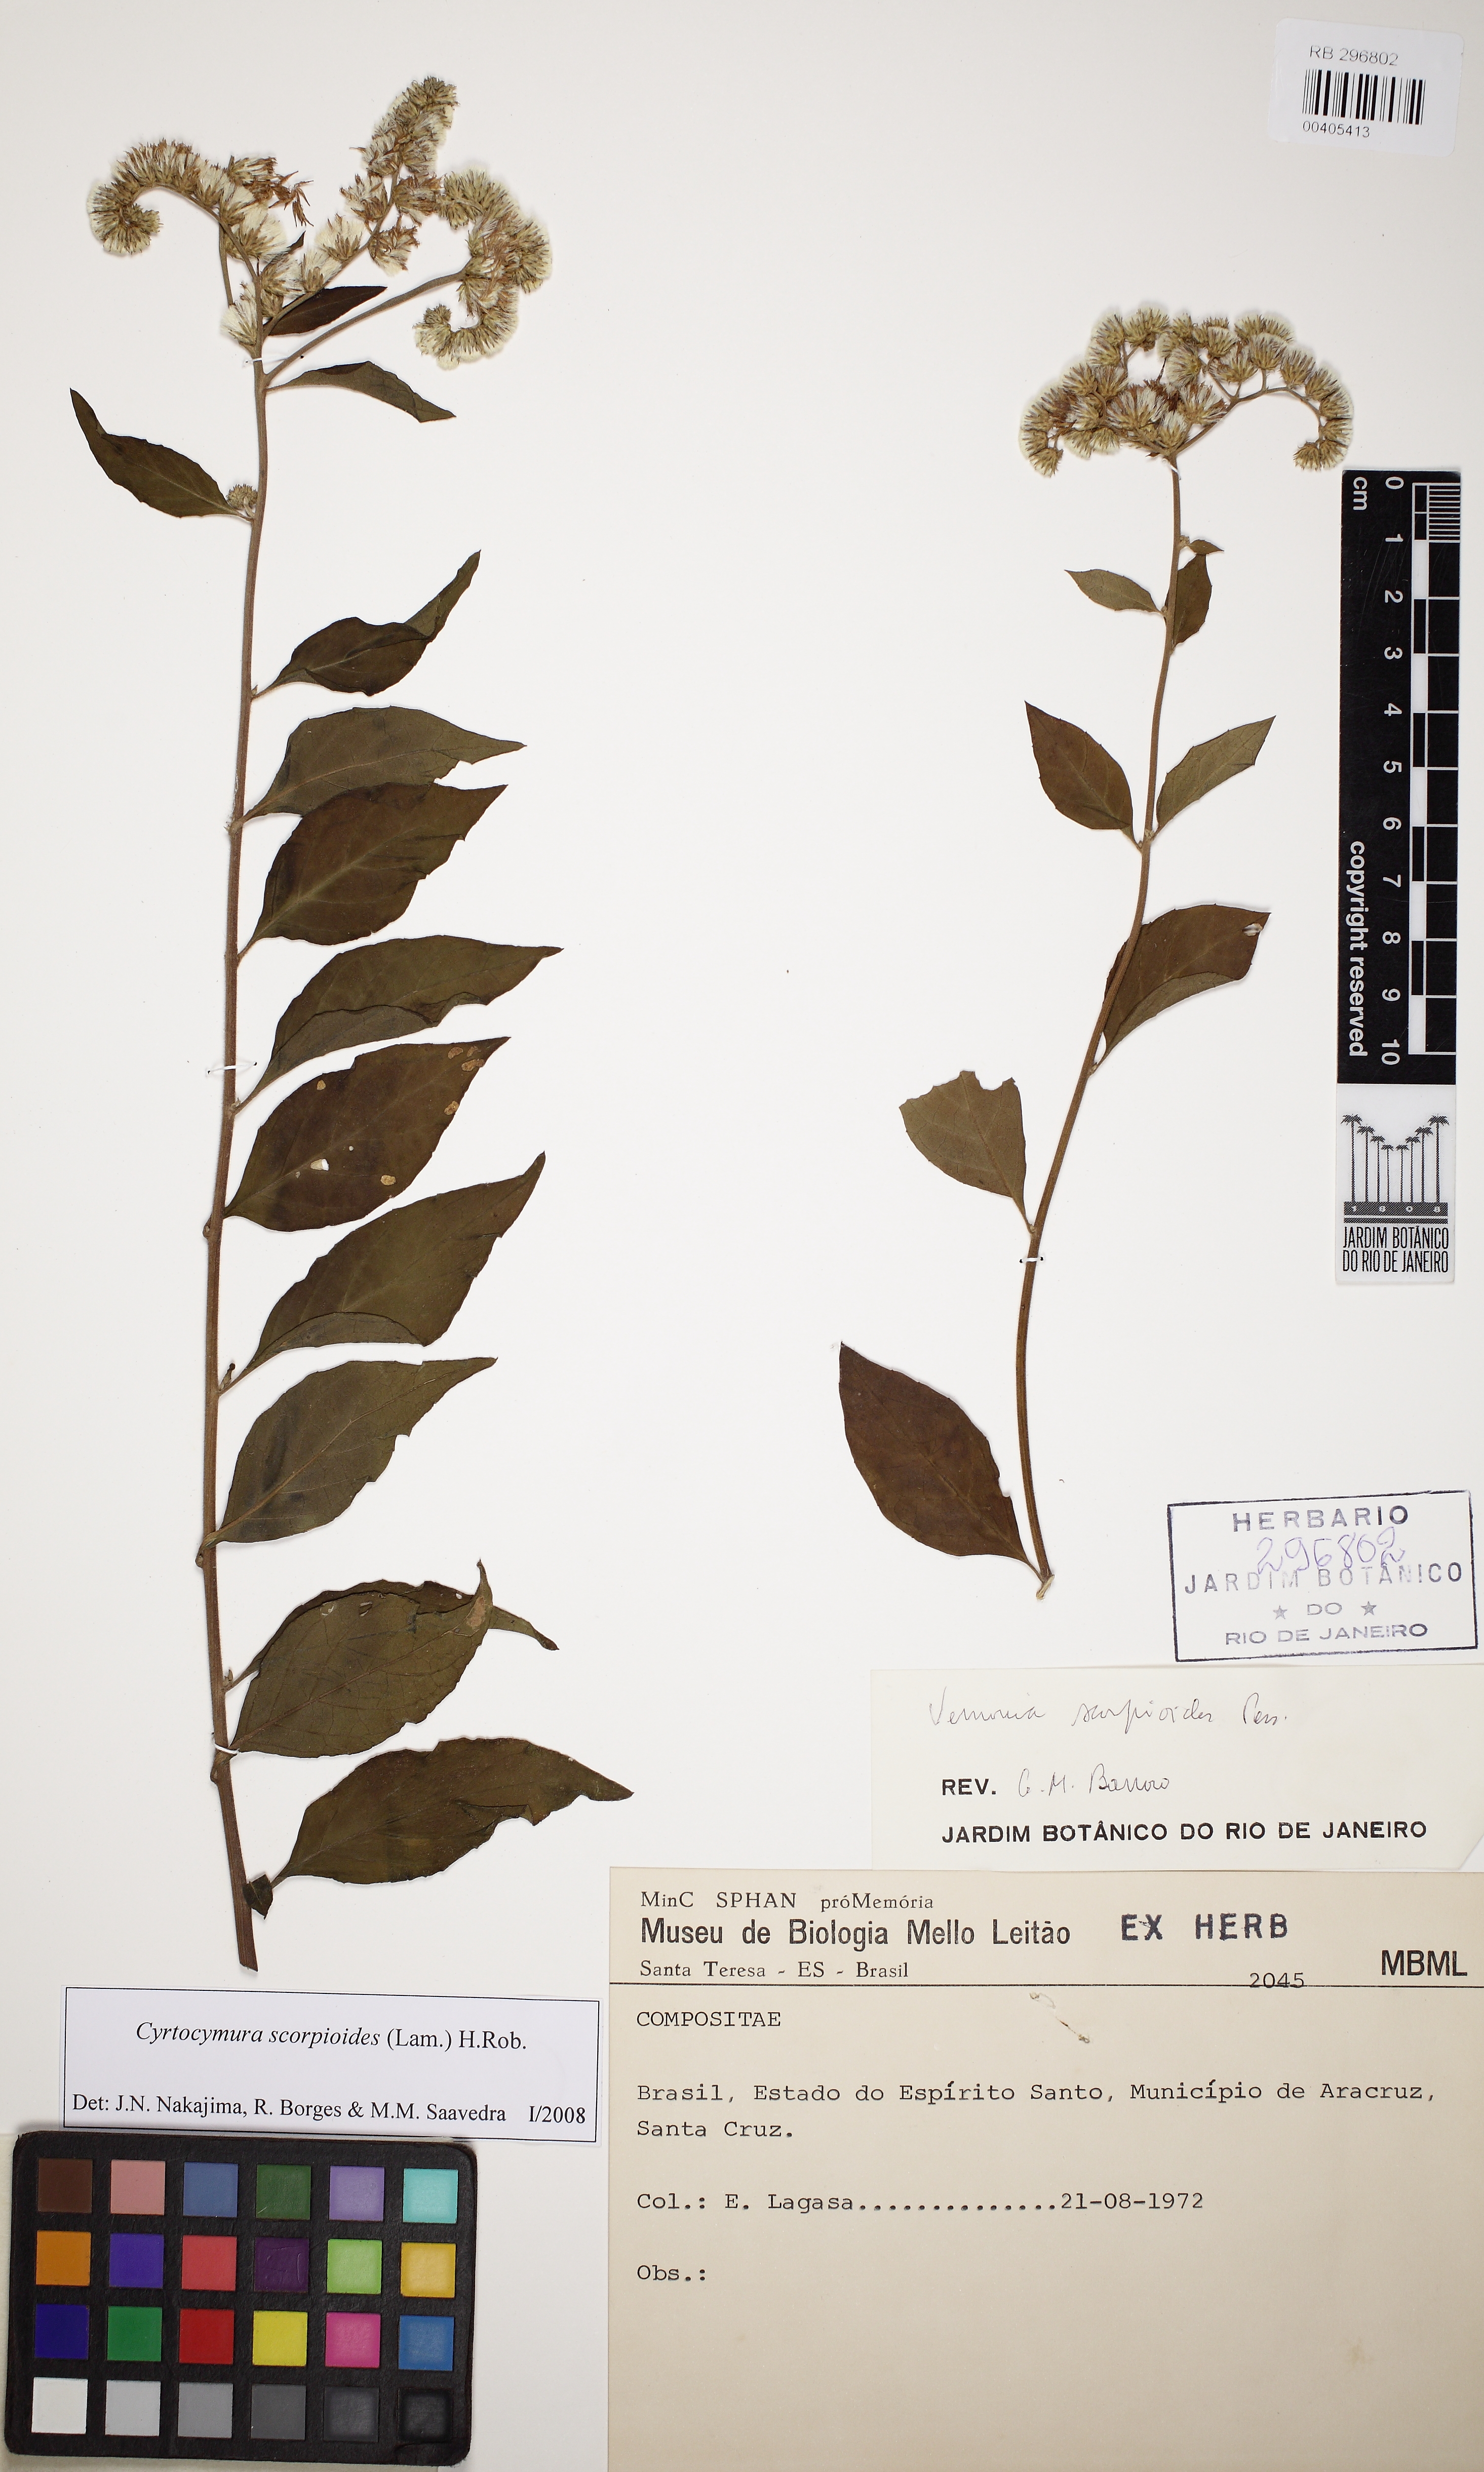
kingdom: Plantae
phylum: Tracheophyta
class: Magnoliopsida
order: Asterales
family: Asteraceae
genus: Cyrtocymura
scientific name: Cyrtocymura scorpioides
